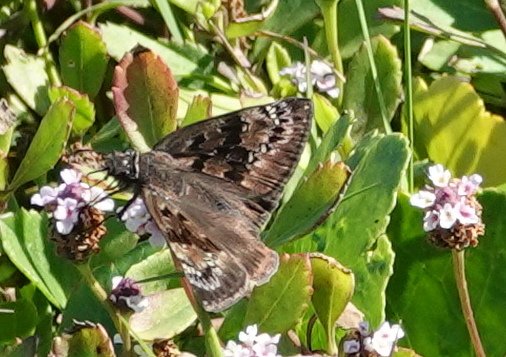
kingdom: Animalia
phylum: Arthropoda
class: Insecta
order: Lepidoptera
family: Hesperiidae
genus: Gesta
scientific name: Gesta
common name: Horace's Duskywing
